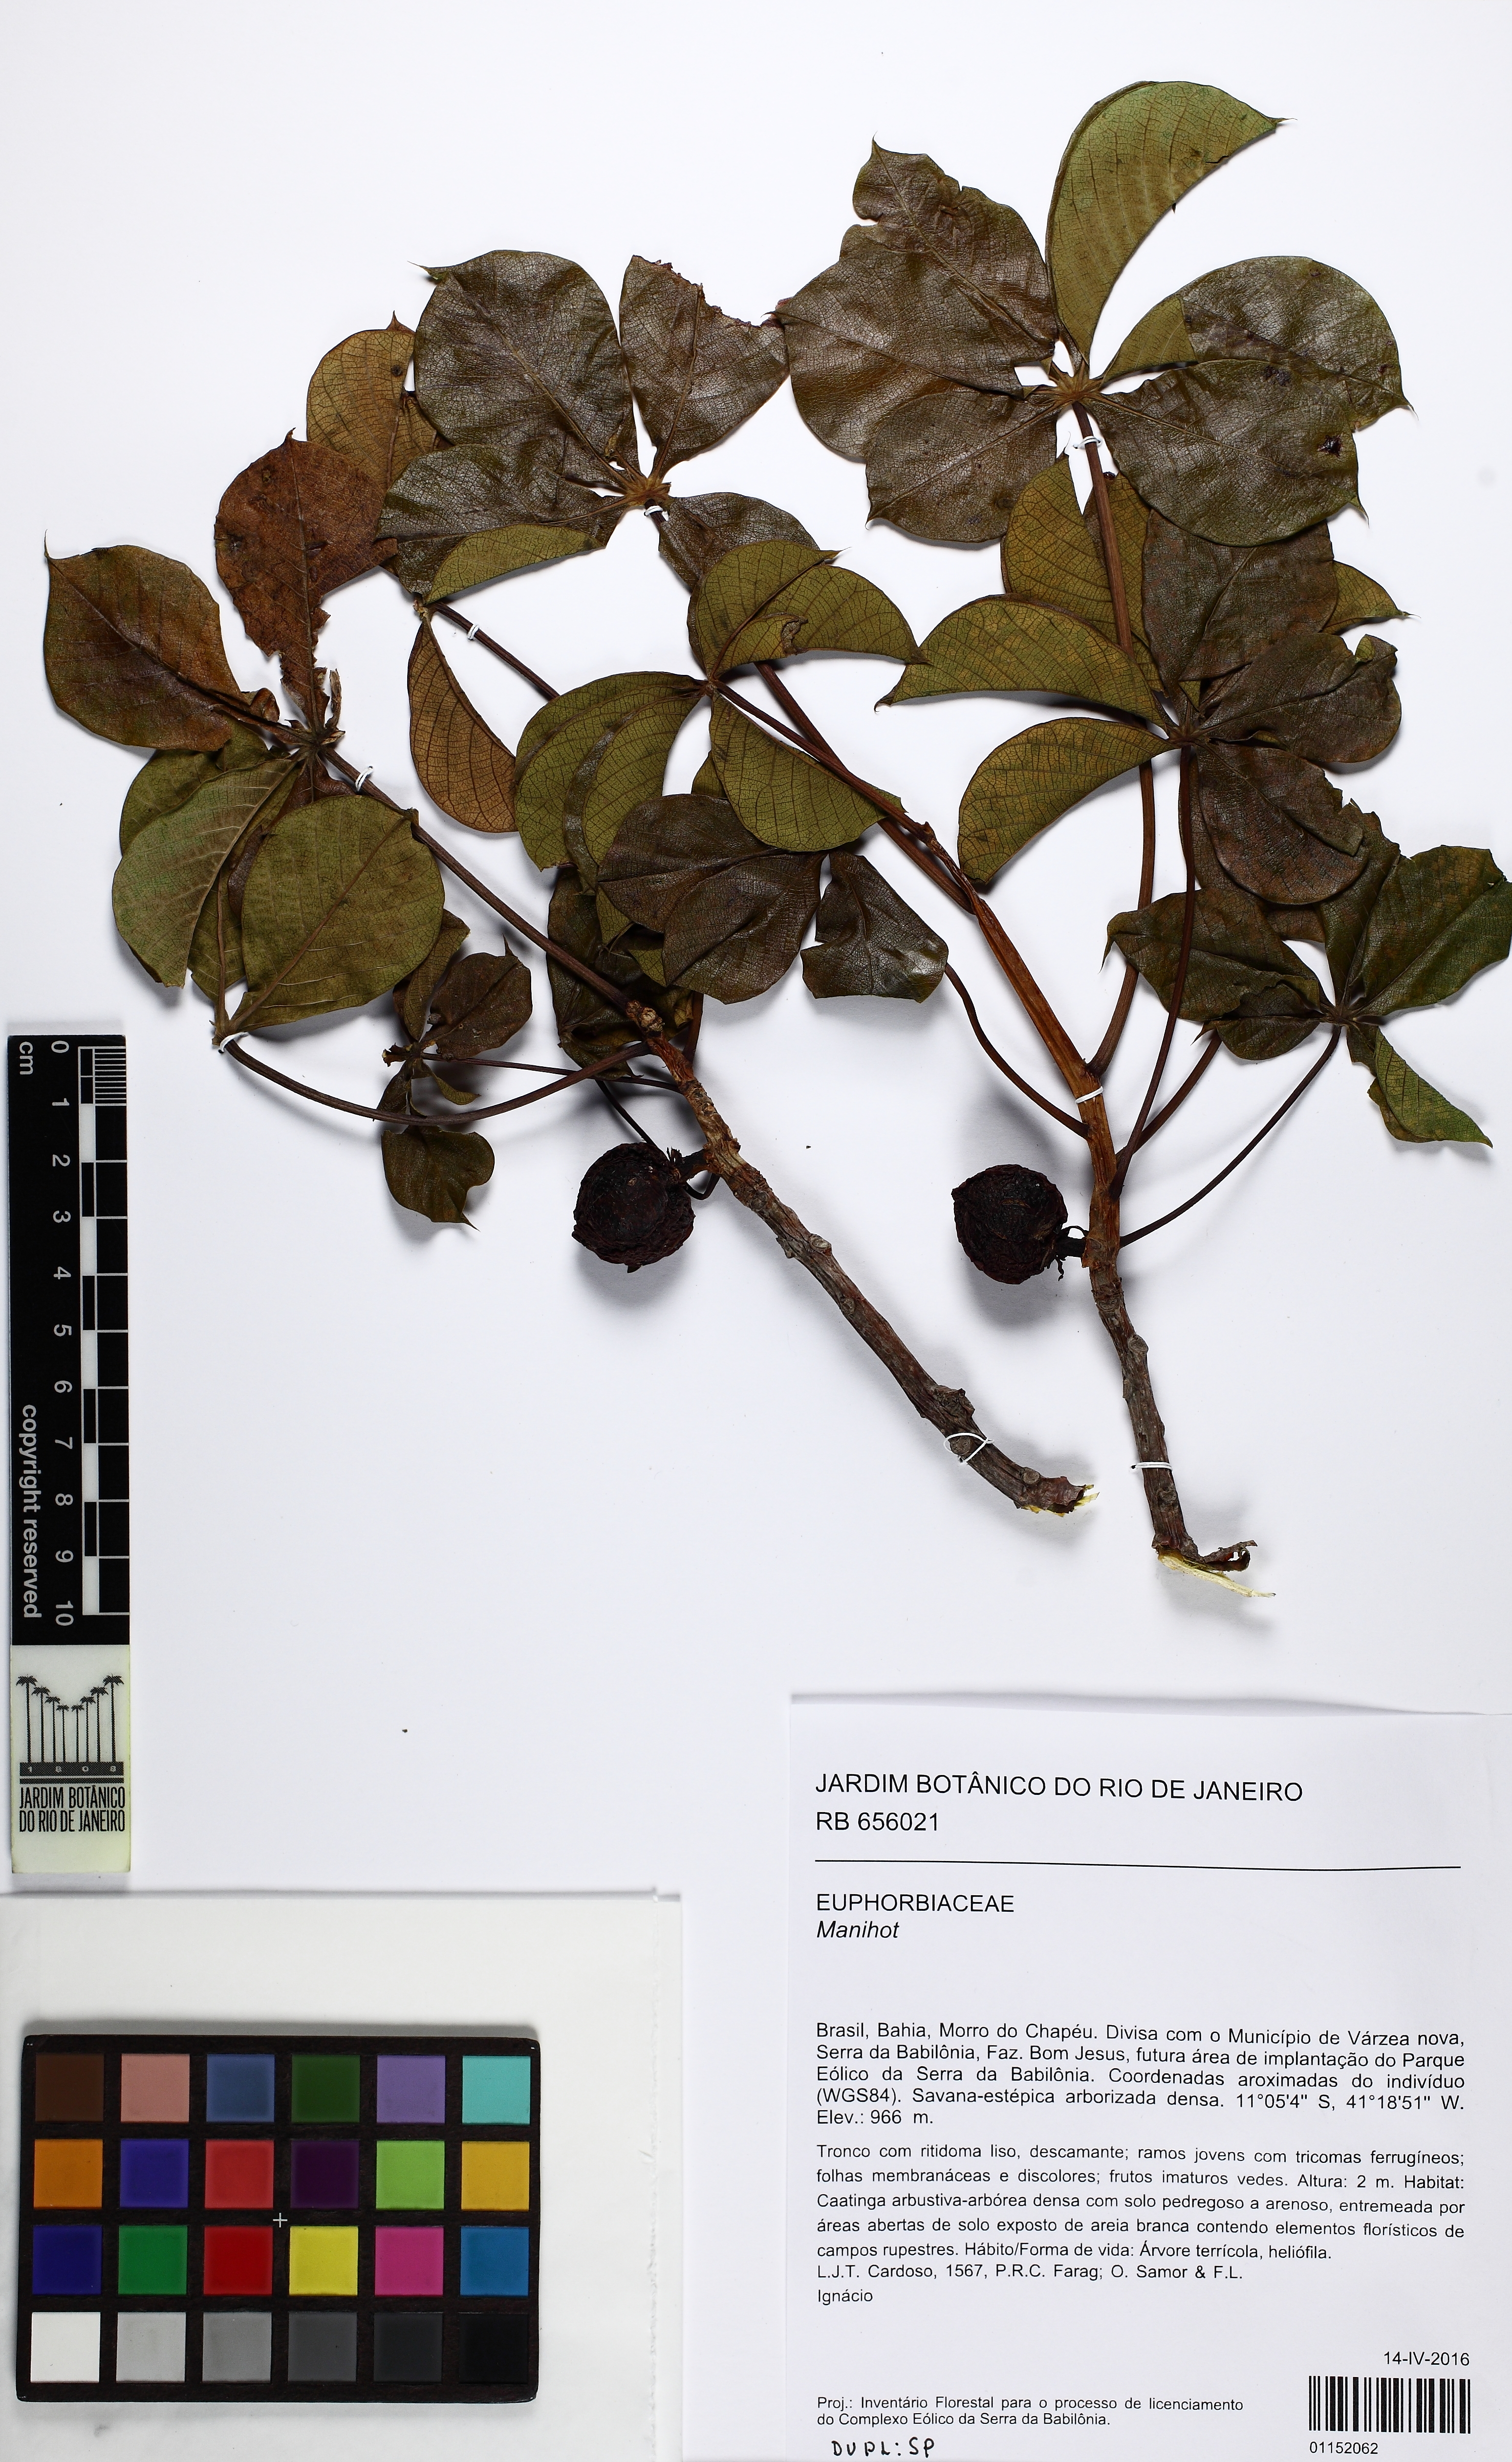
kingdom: Plantae
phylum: Tracheophyta
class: Magnoliopsida
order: Malpighiales
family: Euphorbiaceae
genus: Manihot
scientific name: Manihot
